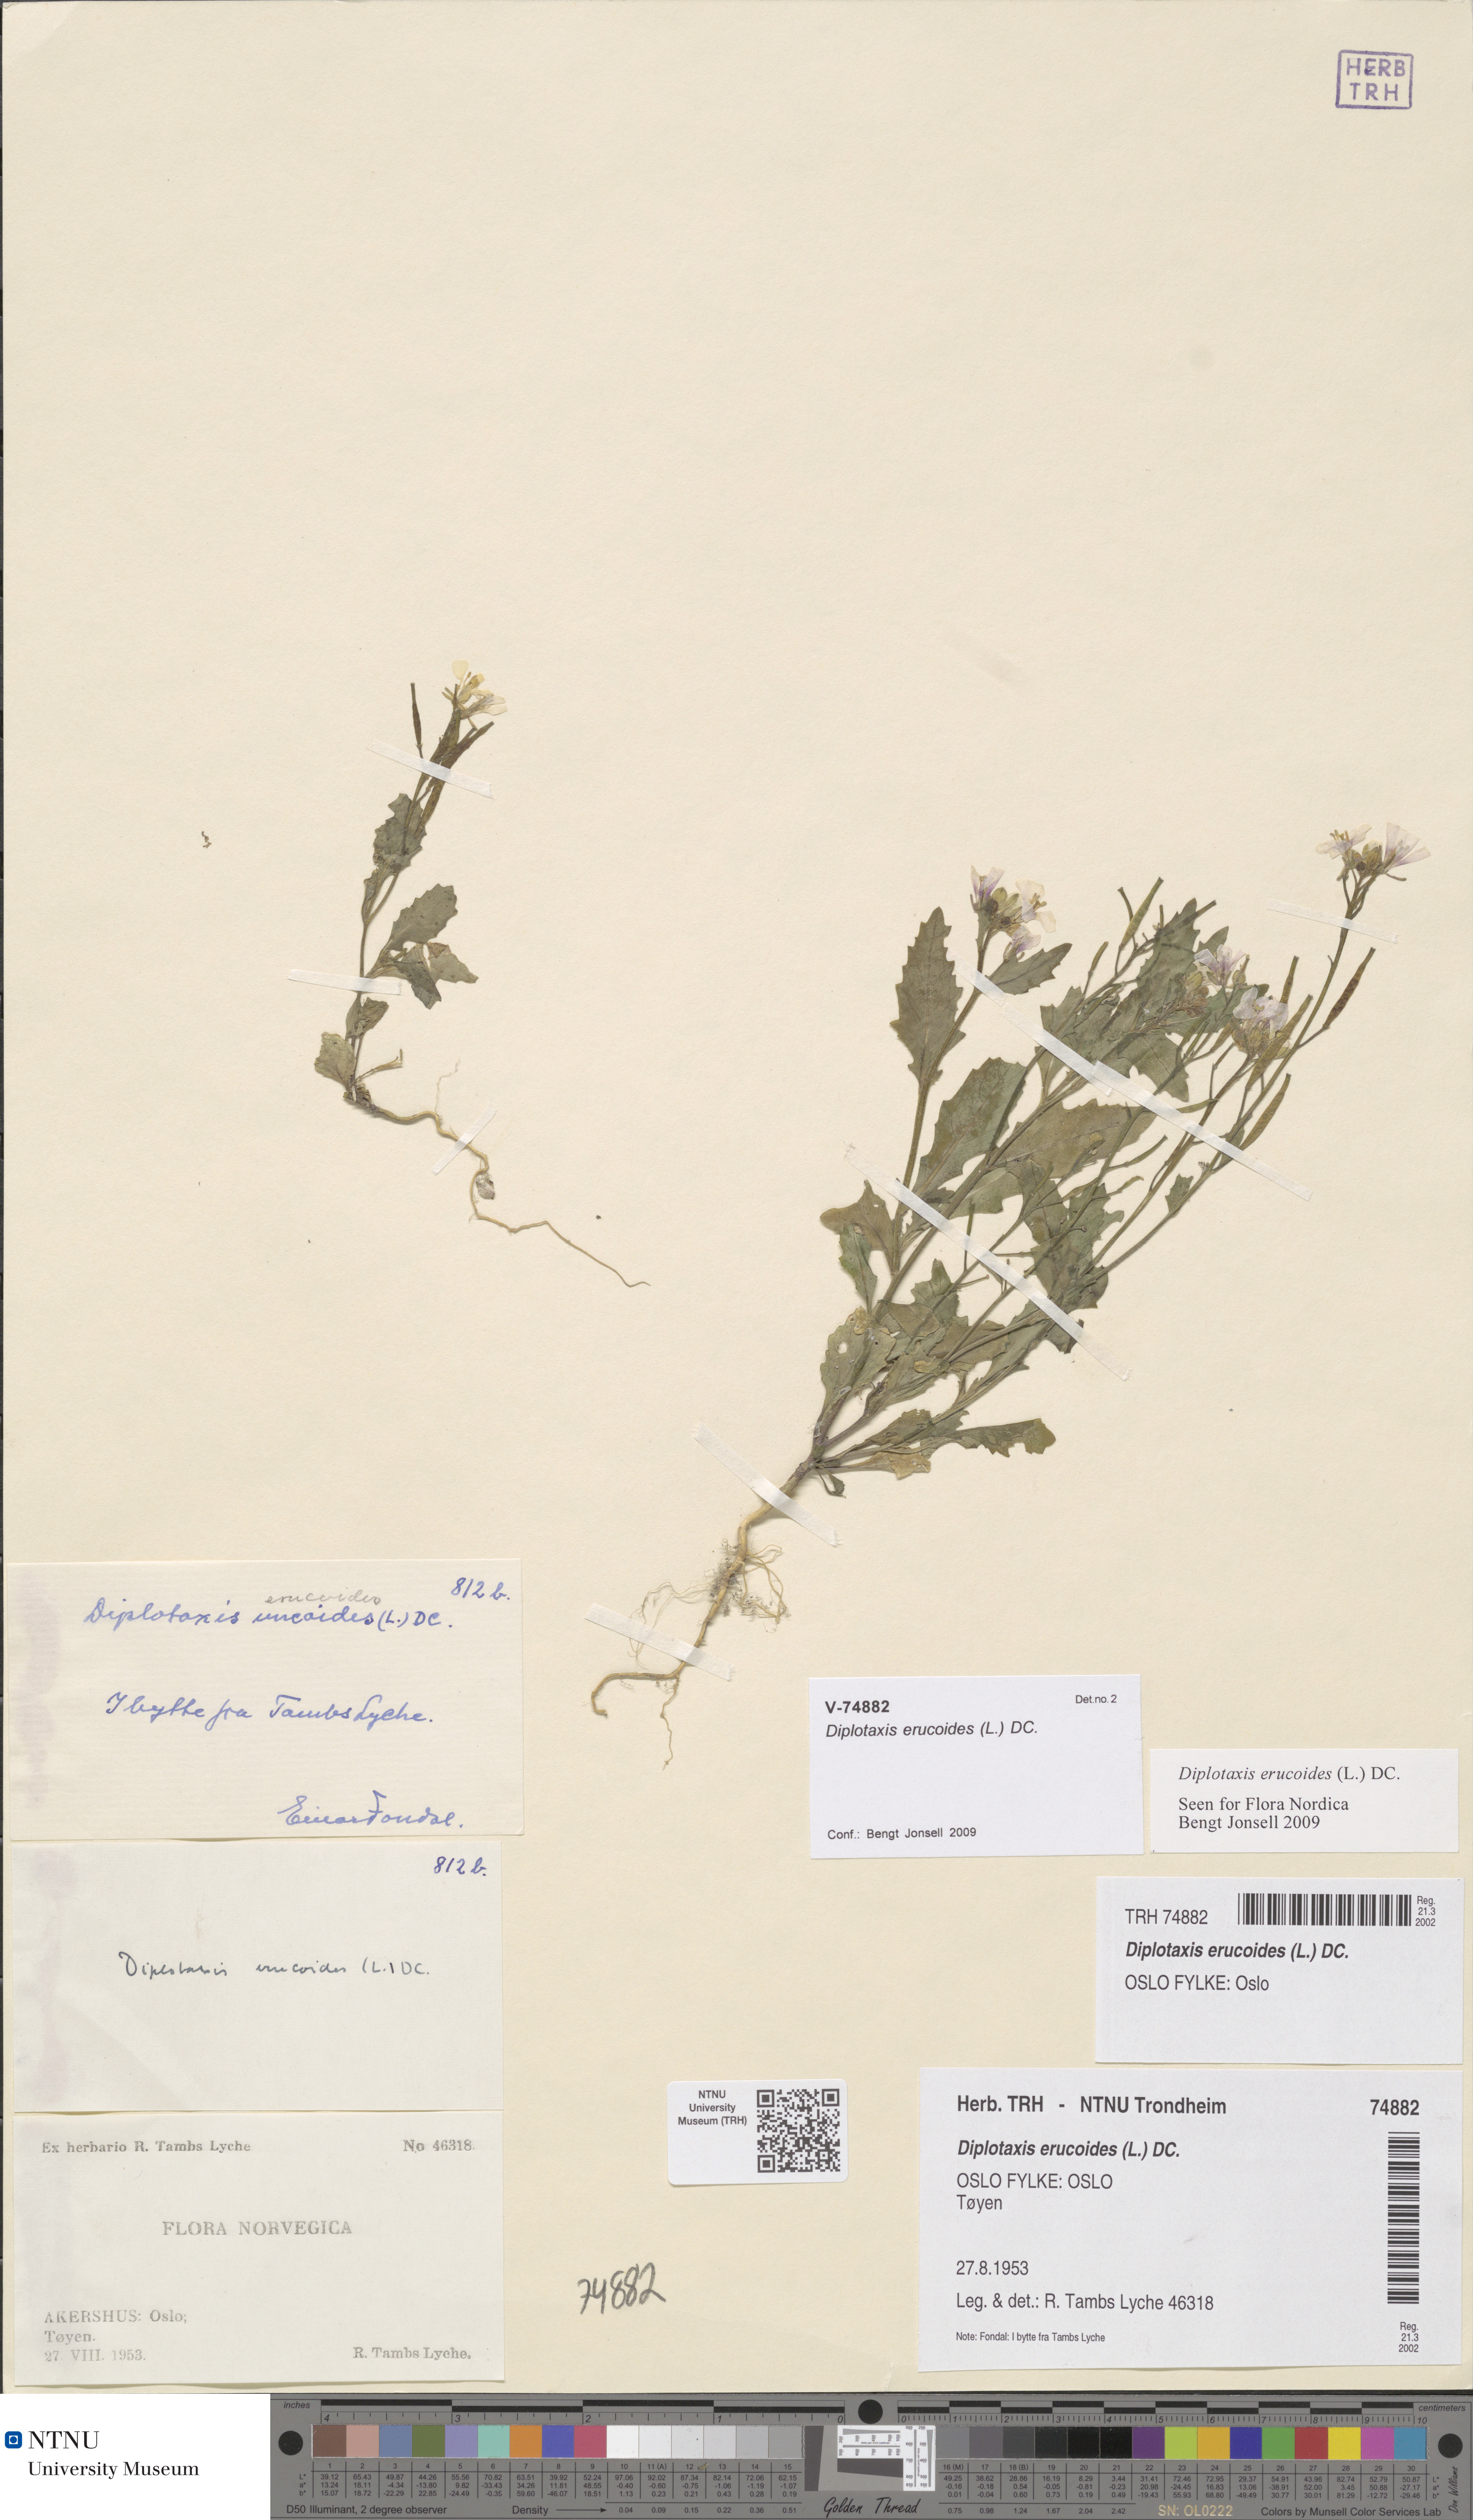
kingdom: Plantae
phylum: Tracheophyta
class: Magnoliopsida
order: Brassicales
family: Brassicaceae
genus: Diplotaxis
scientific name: Diplotaxis erucoides
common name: White rocket
